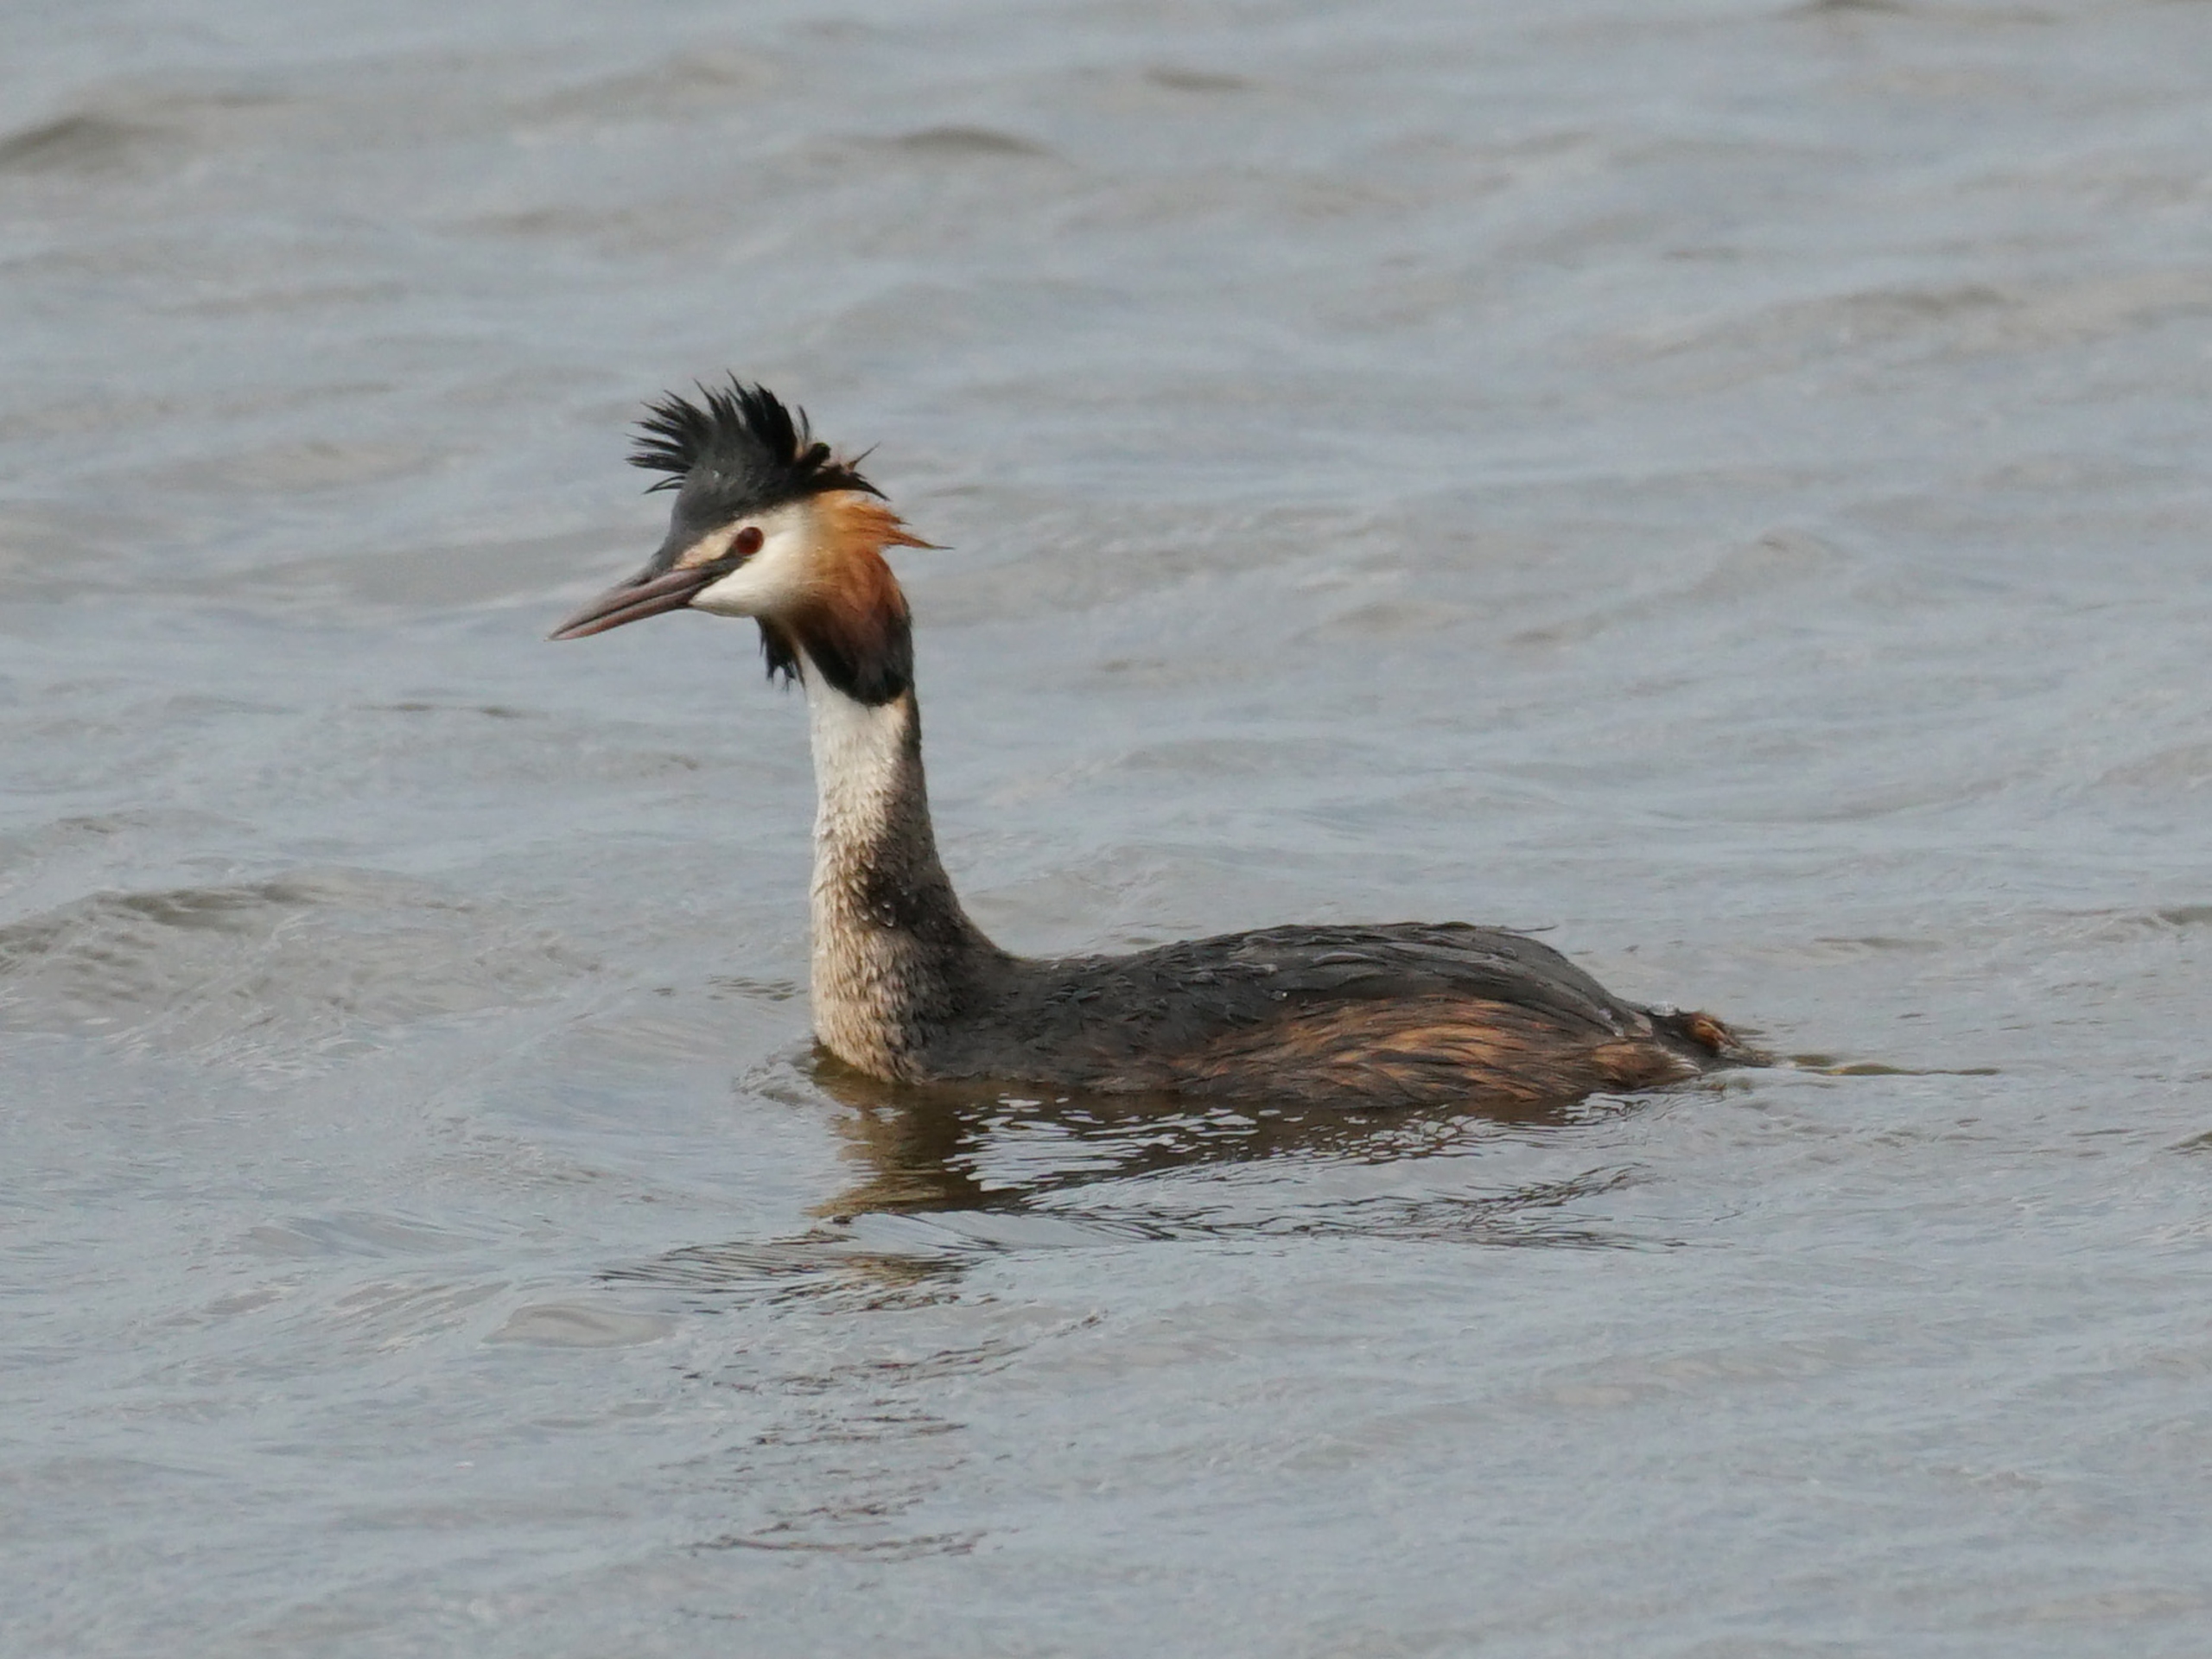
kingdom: Animalia
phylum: Chordata
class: Aves
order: Podicipediformes
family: Podicipedidae
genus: Podiceps
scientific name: Podiceps cristatus
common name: Toppet lappedykker
